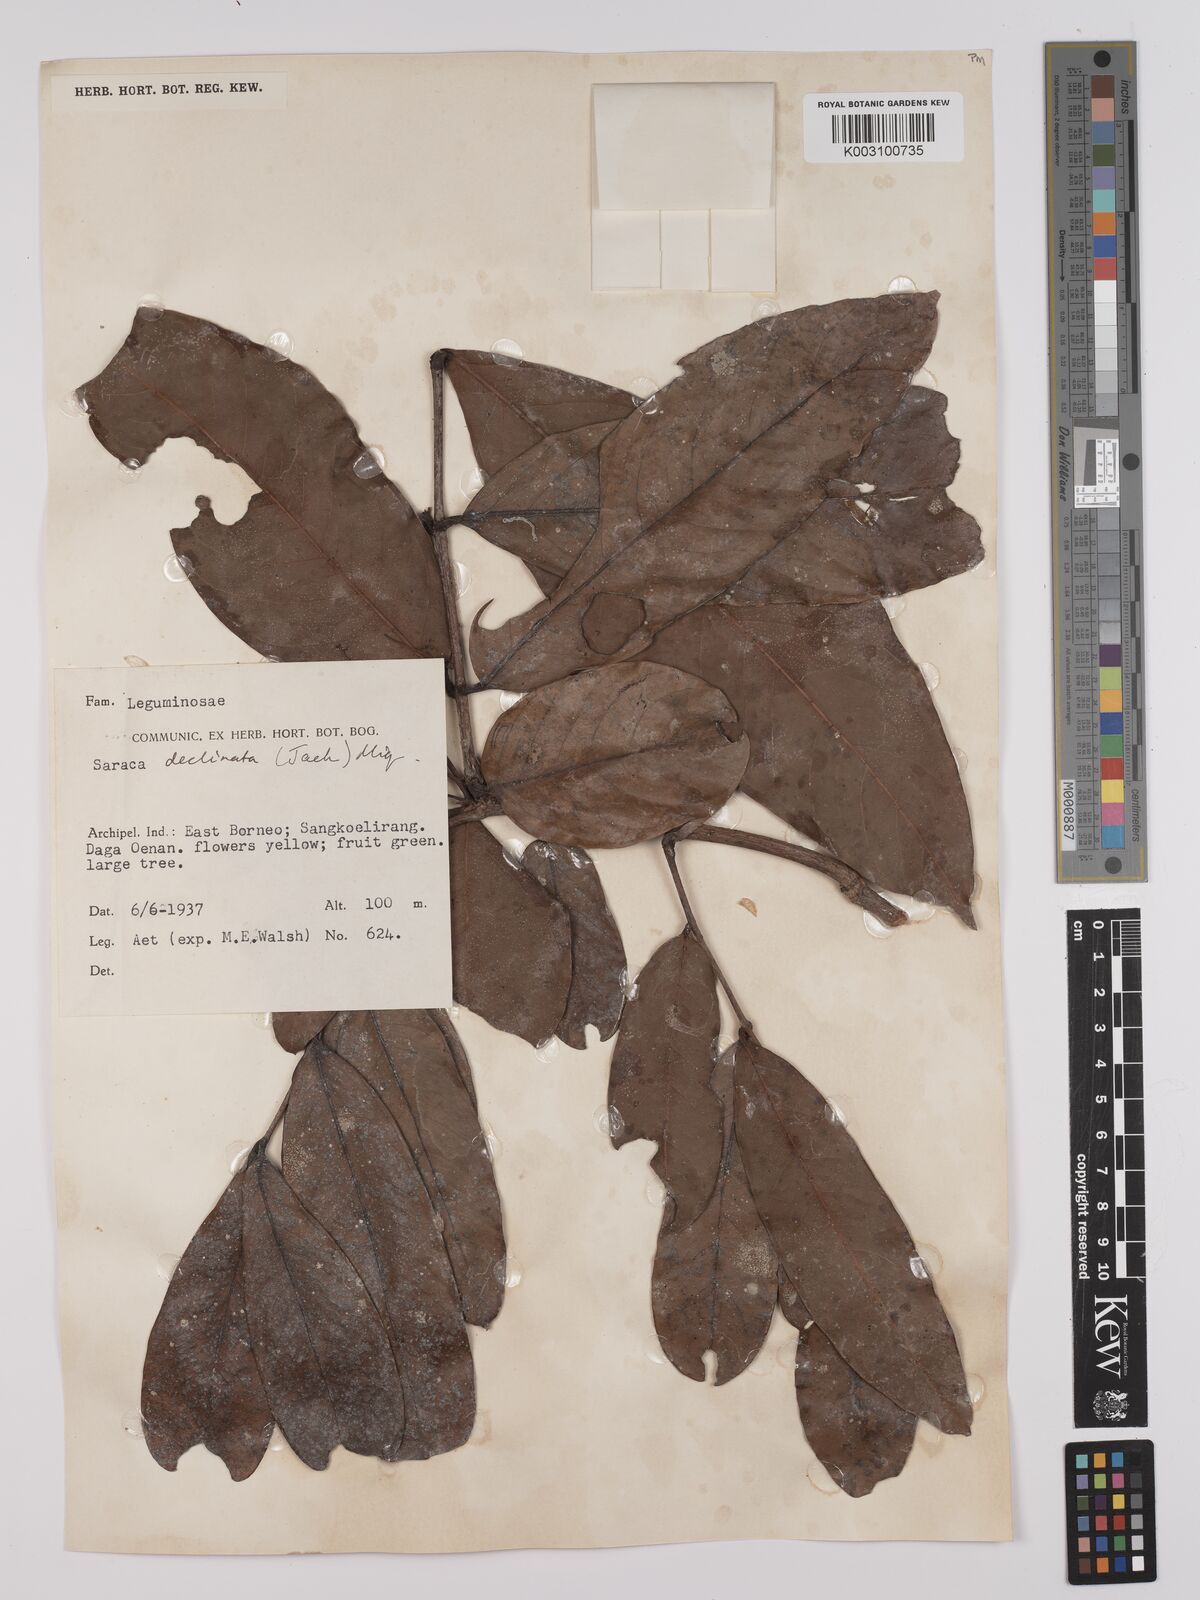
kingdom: Plantae
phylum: Tracheophyta
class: Magnoliopsida
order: Fabales
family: Fabaceae
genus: Saraca
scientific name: Saraca declinata
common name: Red saraca
